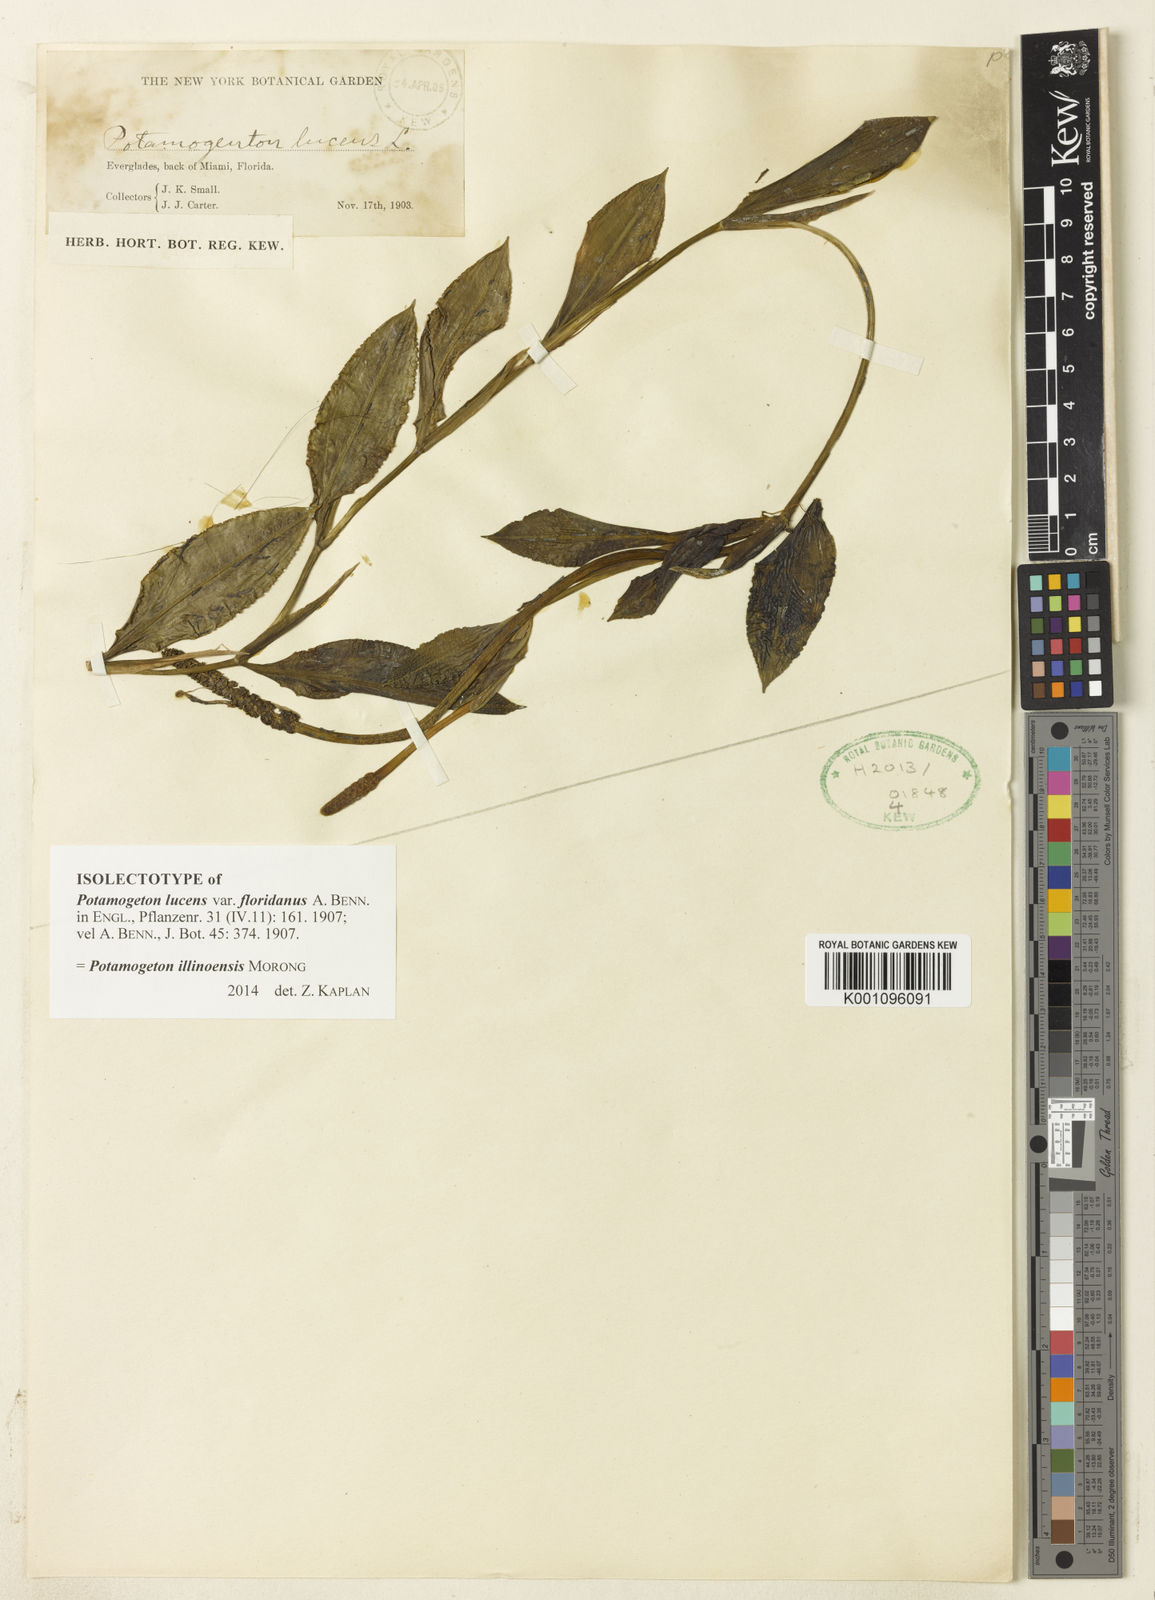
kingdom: Plantae
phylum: Tracheophyta
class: Liliopsida
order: Alismatales
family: Potamogetonaceae
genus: Potamogeton
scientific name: Potamogeton illinoensis
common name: Illinois pondweed
